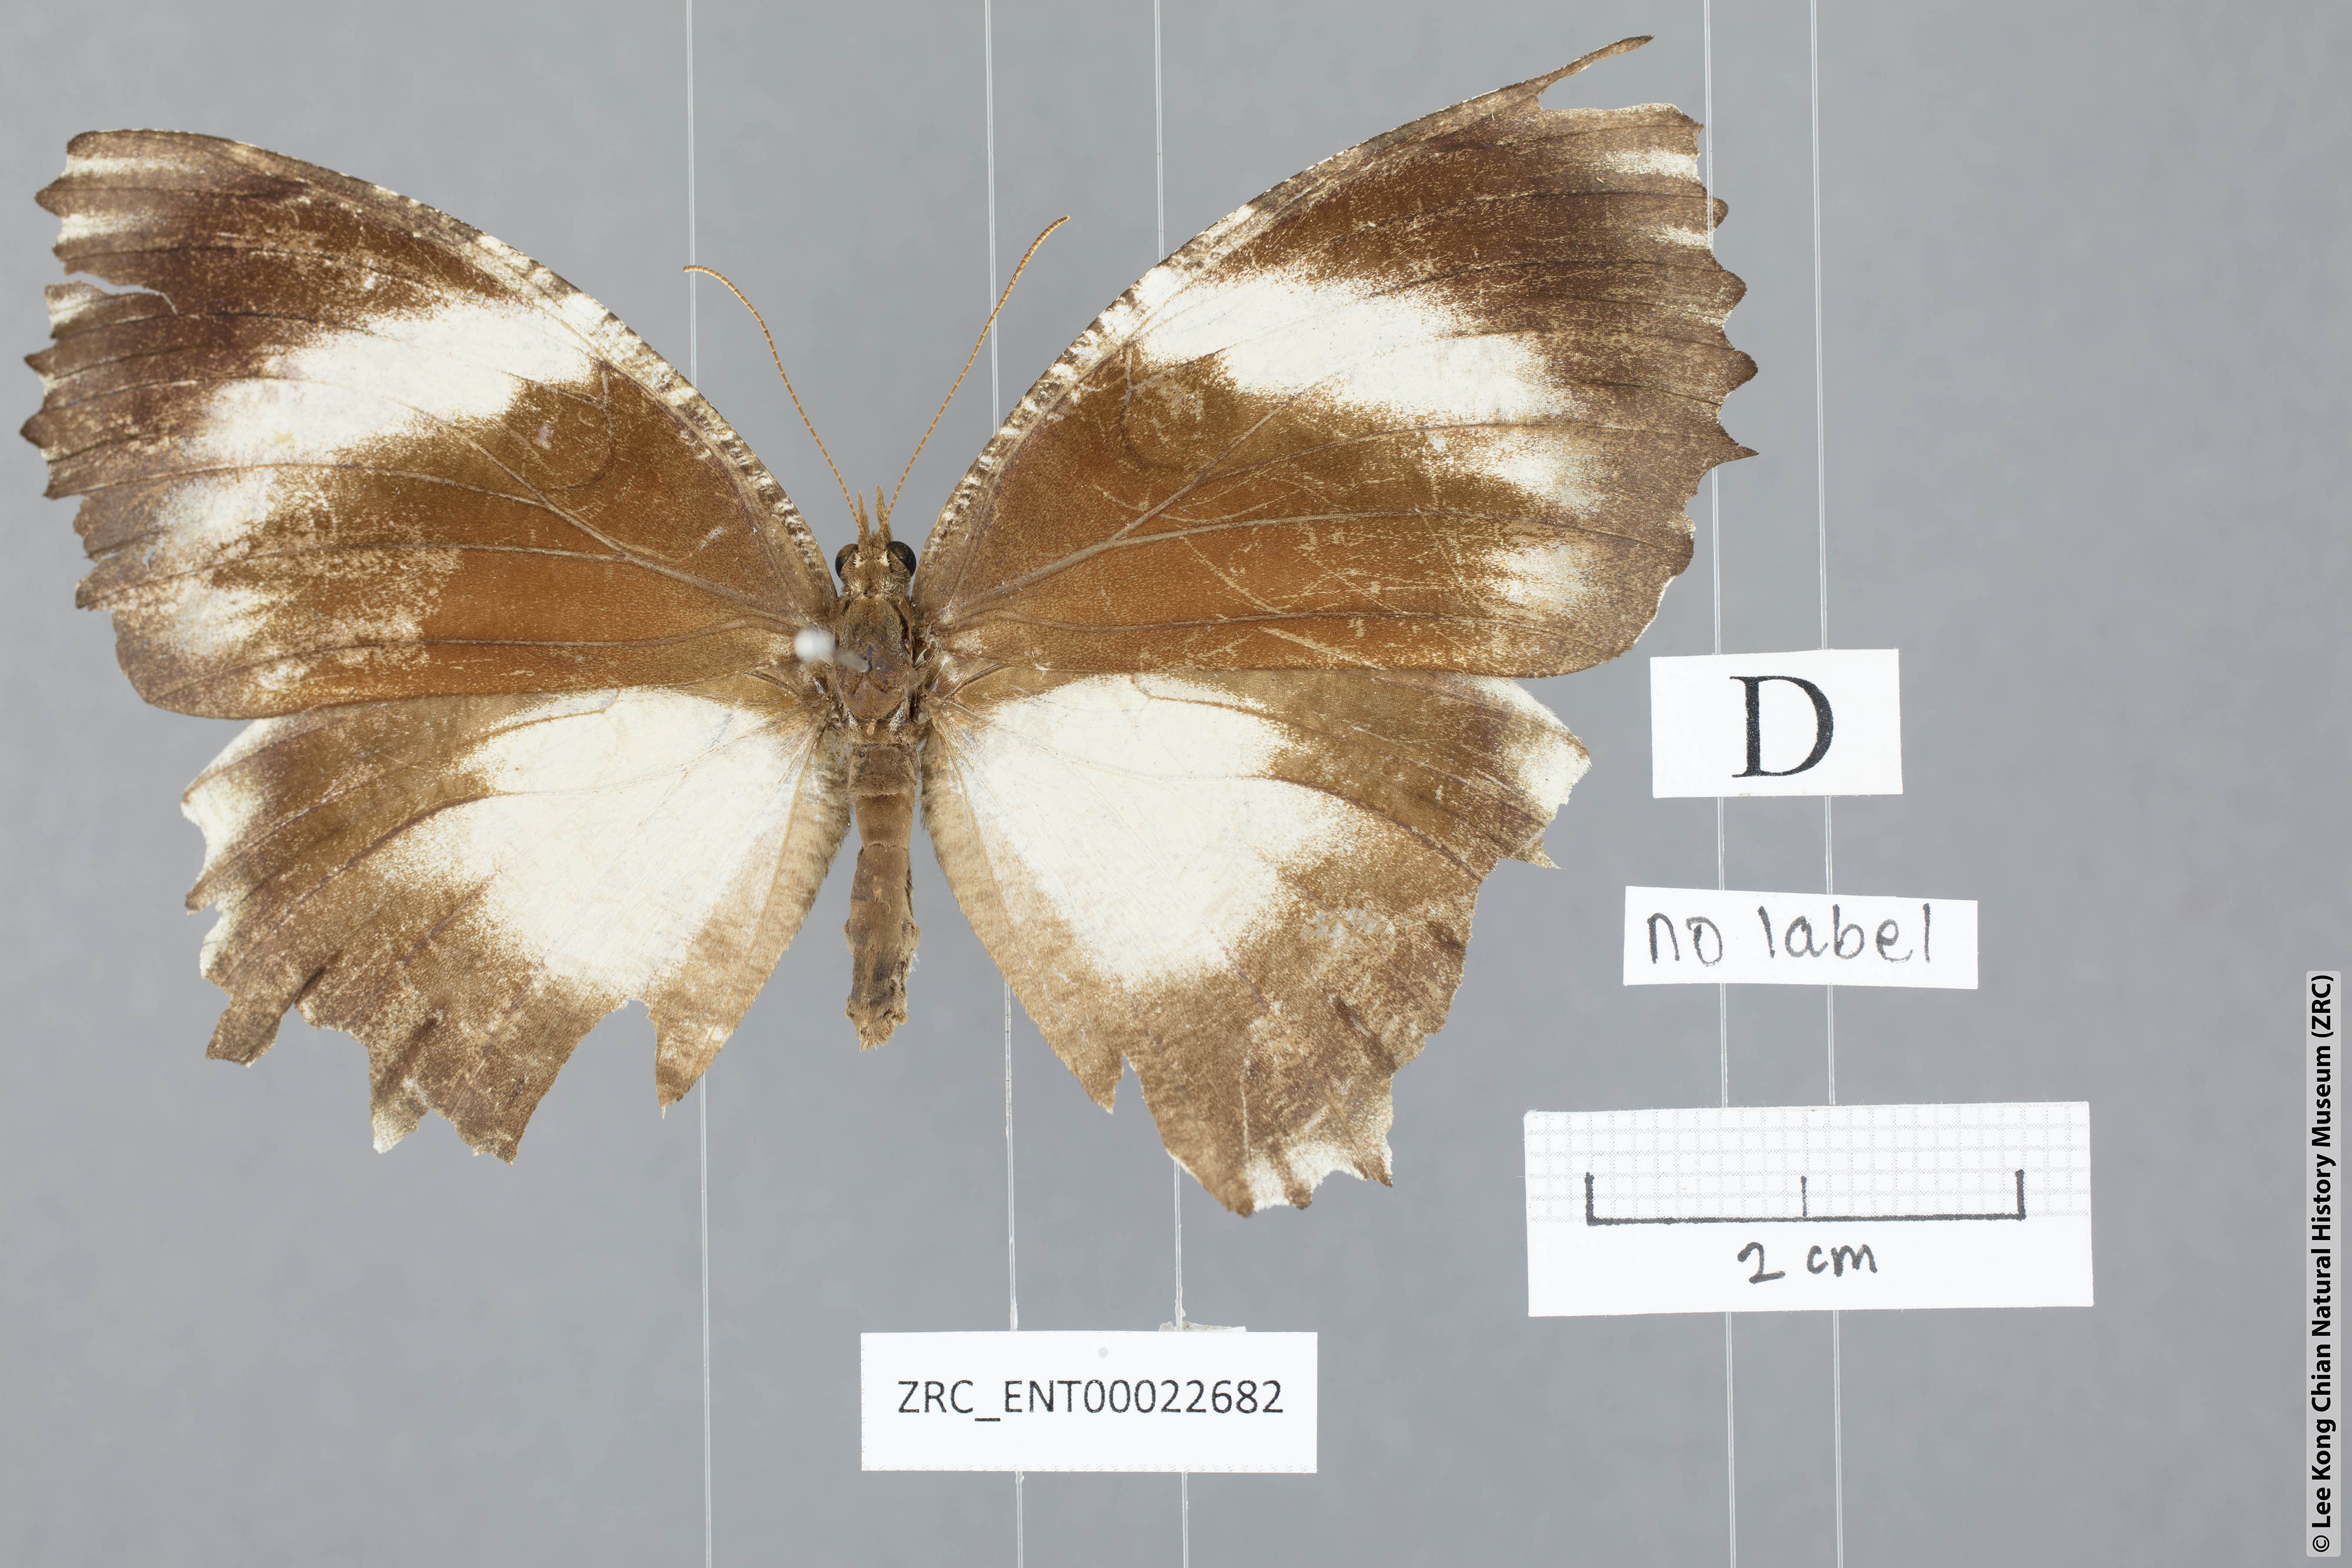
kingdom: Animalia
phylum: Arthropoda
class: Insecta
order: Lepidoptera
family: Nymphalidae
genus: Elymnias
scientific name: Elymnias harterti
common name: Black palmfly
